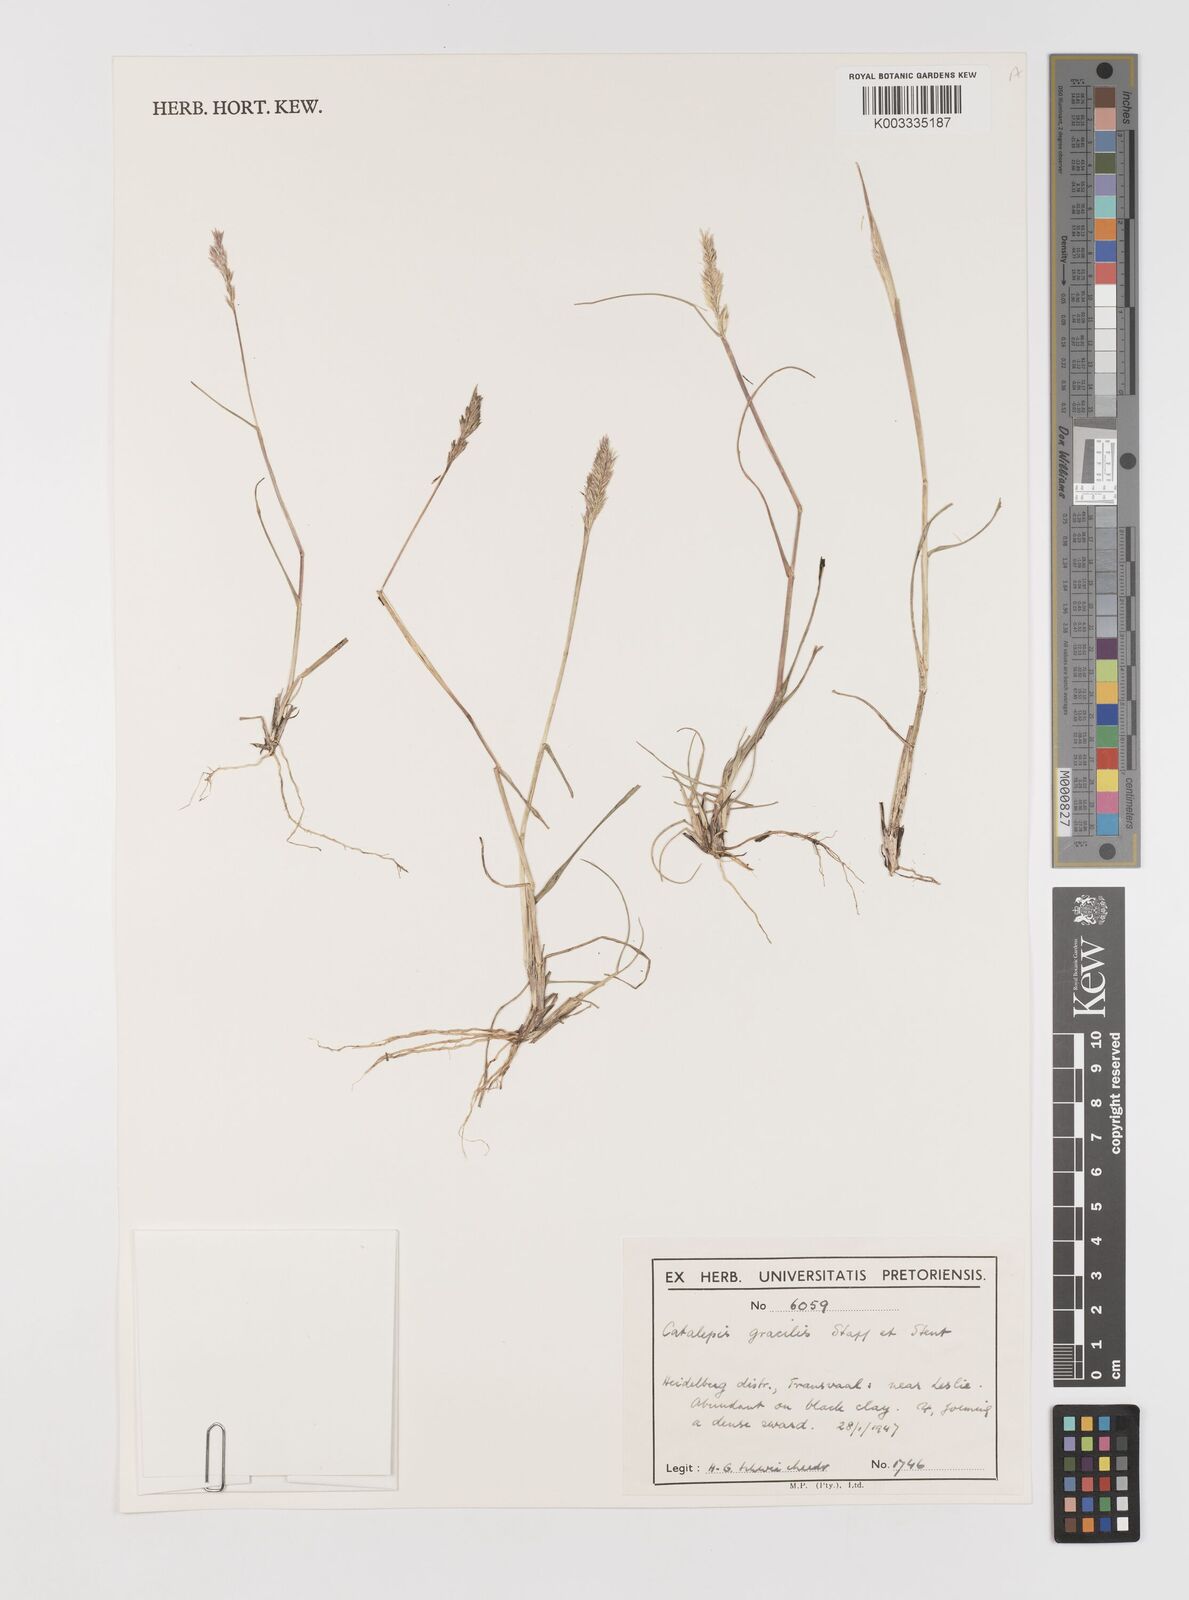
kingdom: Plantae
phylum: Tracheophyta
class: Liliopsida
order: Poales
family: Poaceae
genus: Catalepis
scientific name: Catalepis gracilis
